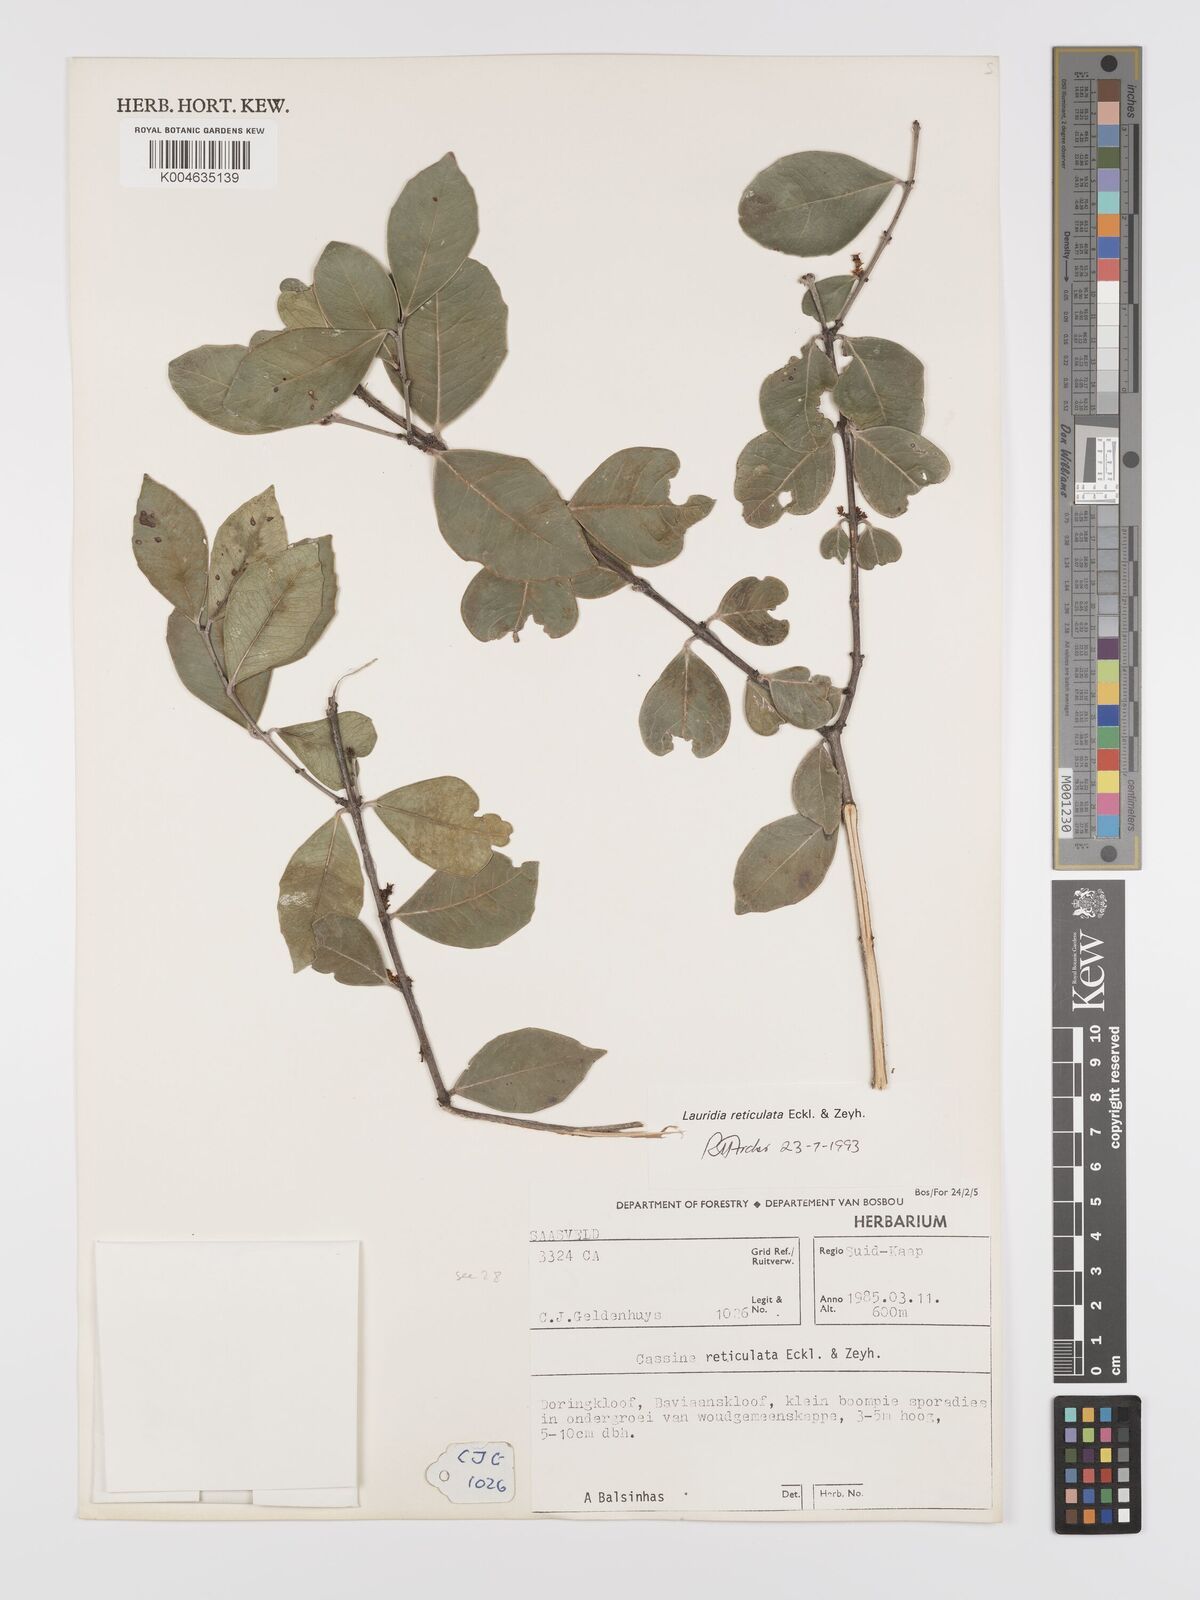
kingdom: Plantae
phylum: Tracheophyta
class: Magnoliopsida
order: Celastrales
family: Celastraceae
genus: Lauridia
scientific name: Lauridia reticulata
